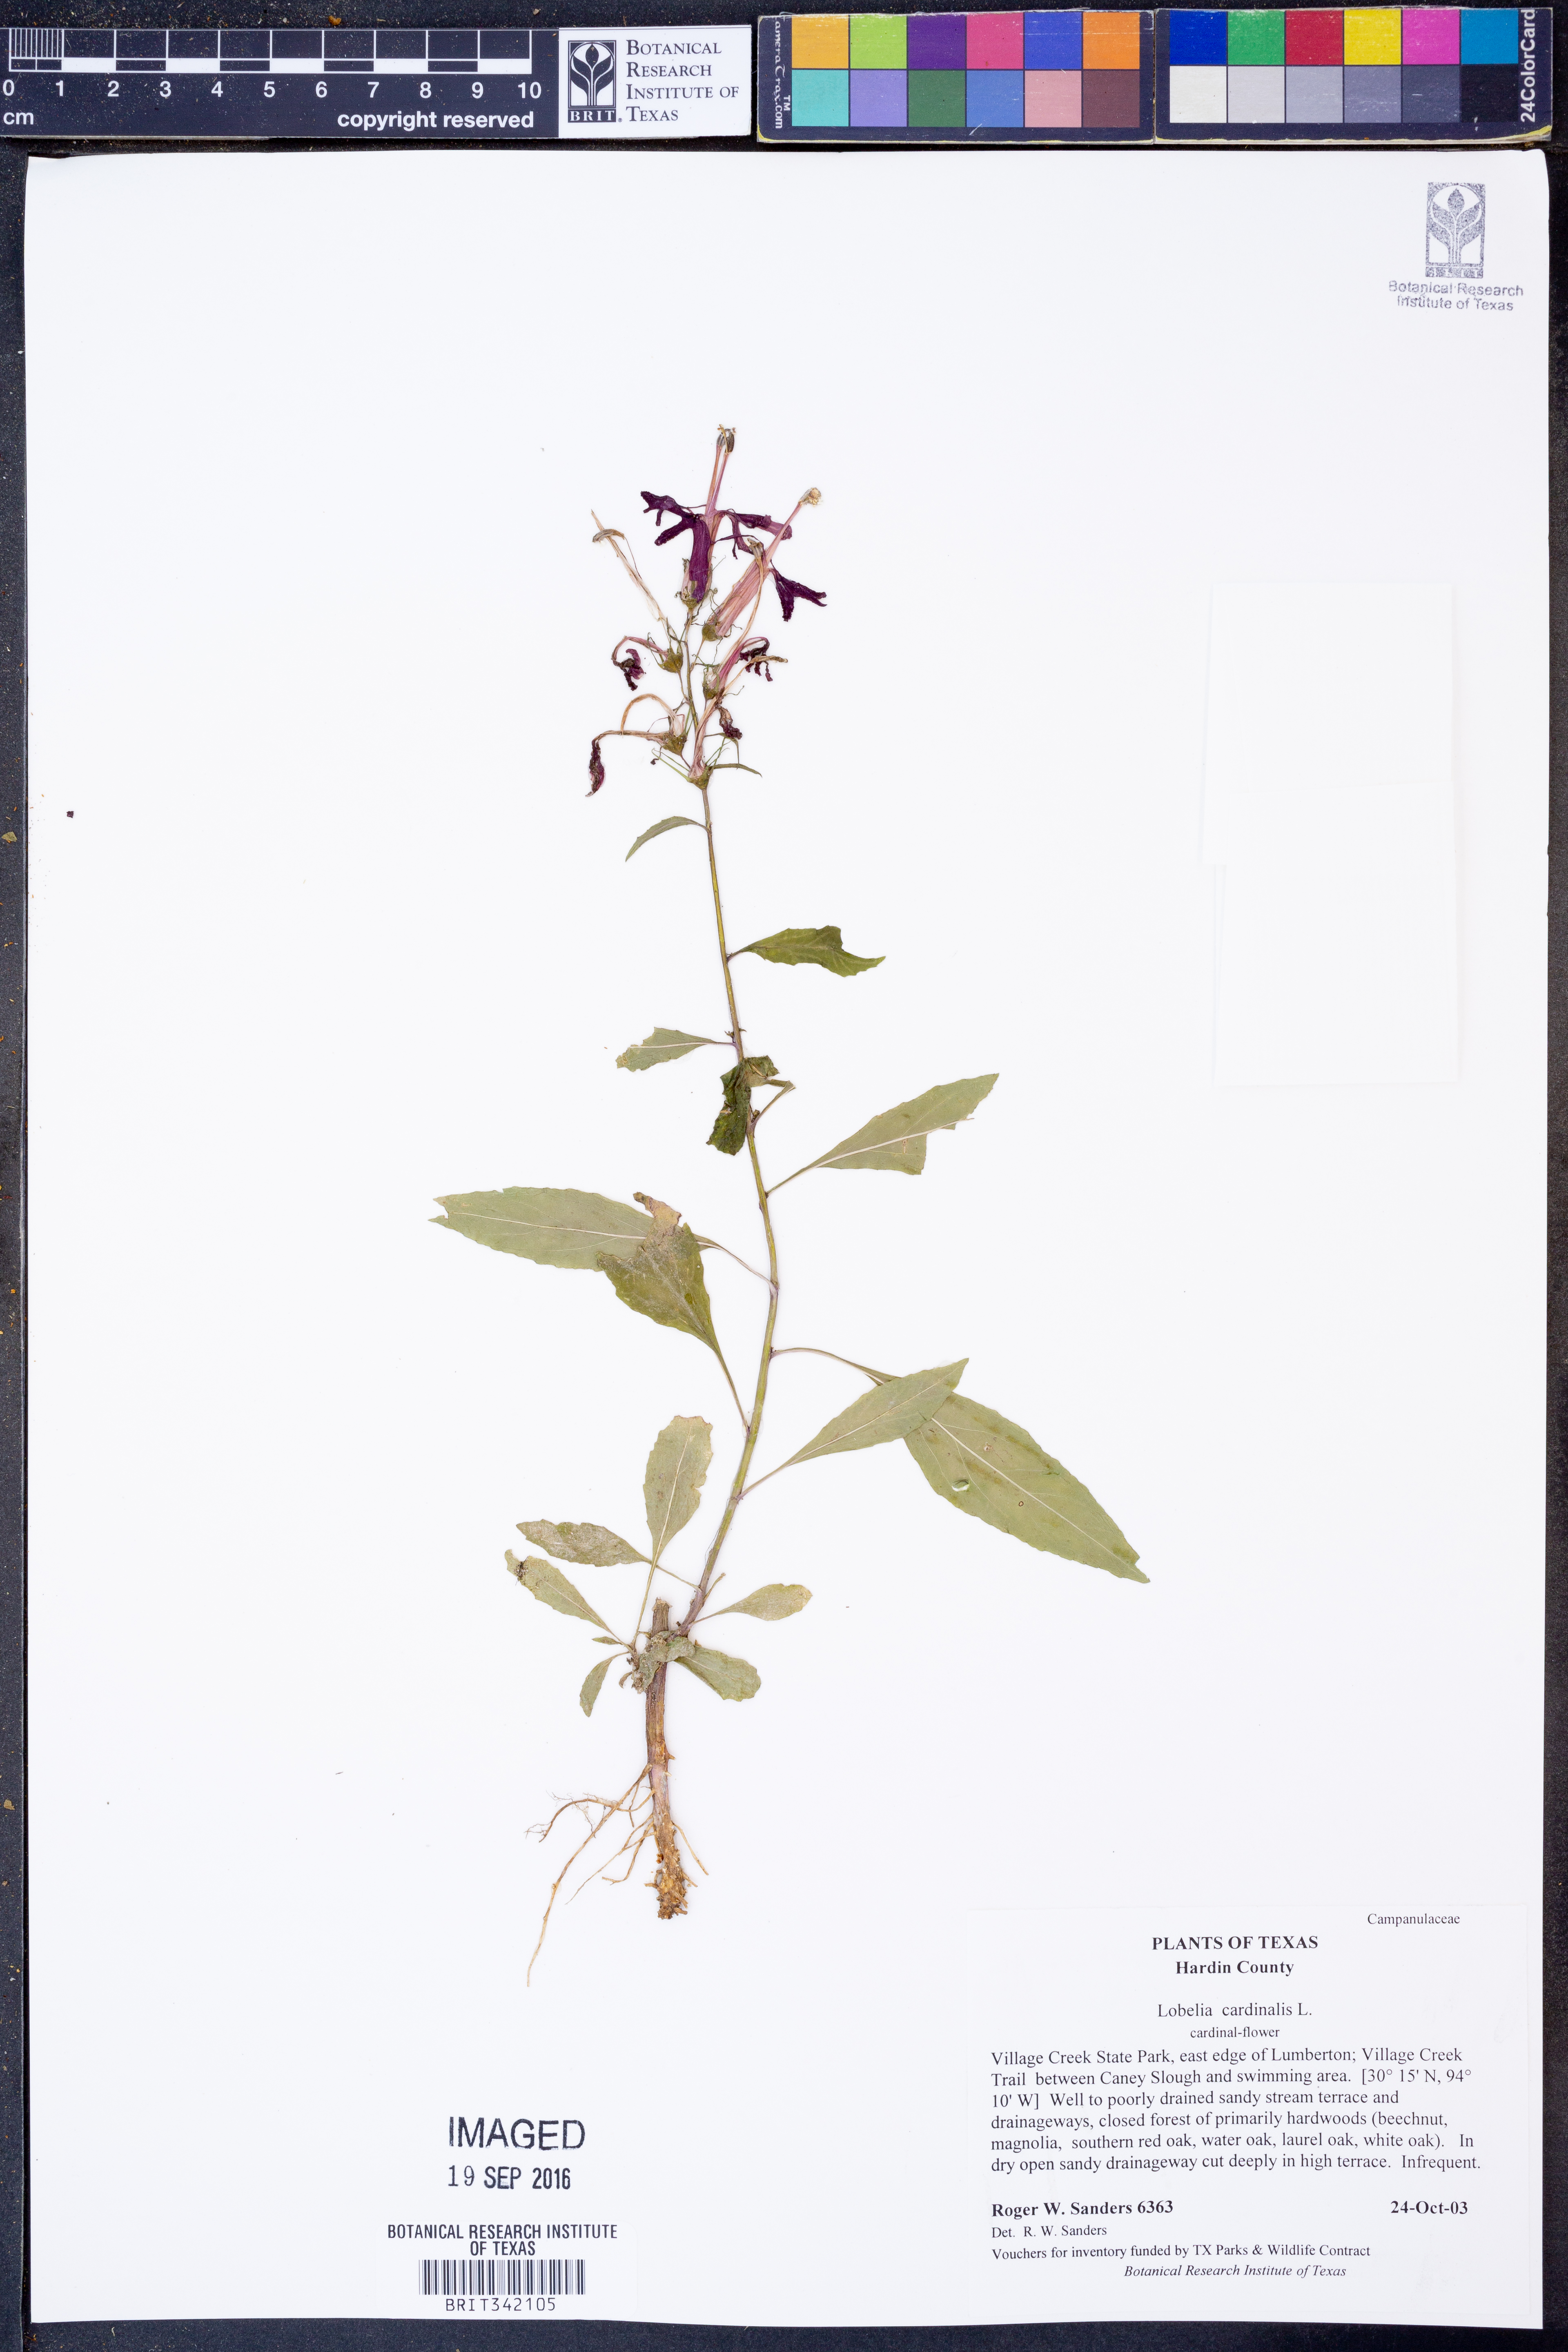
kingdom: Plantae
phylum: Tracheophyta
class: Magnoliopsida
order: Asterales
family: Campanulaceae
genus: Lobelia
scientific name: Lobelia cardinalis
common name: Cardinal flower
